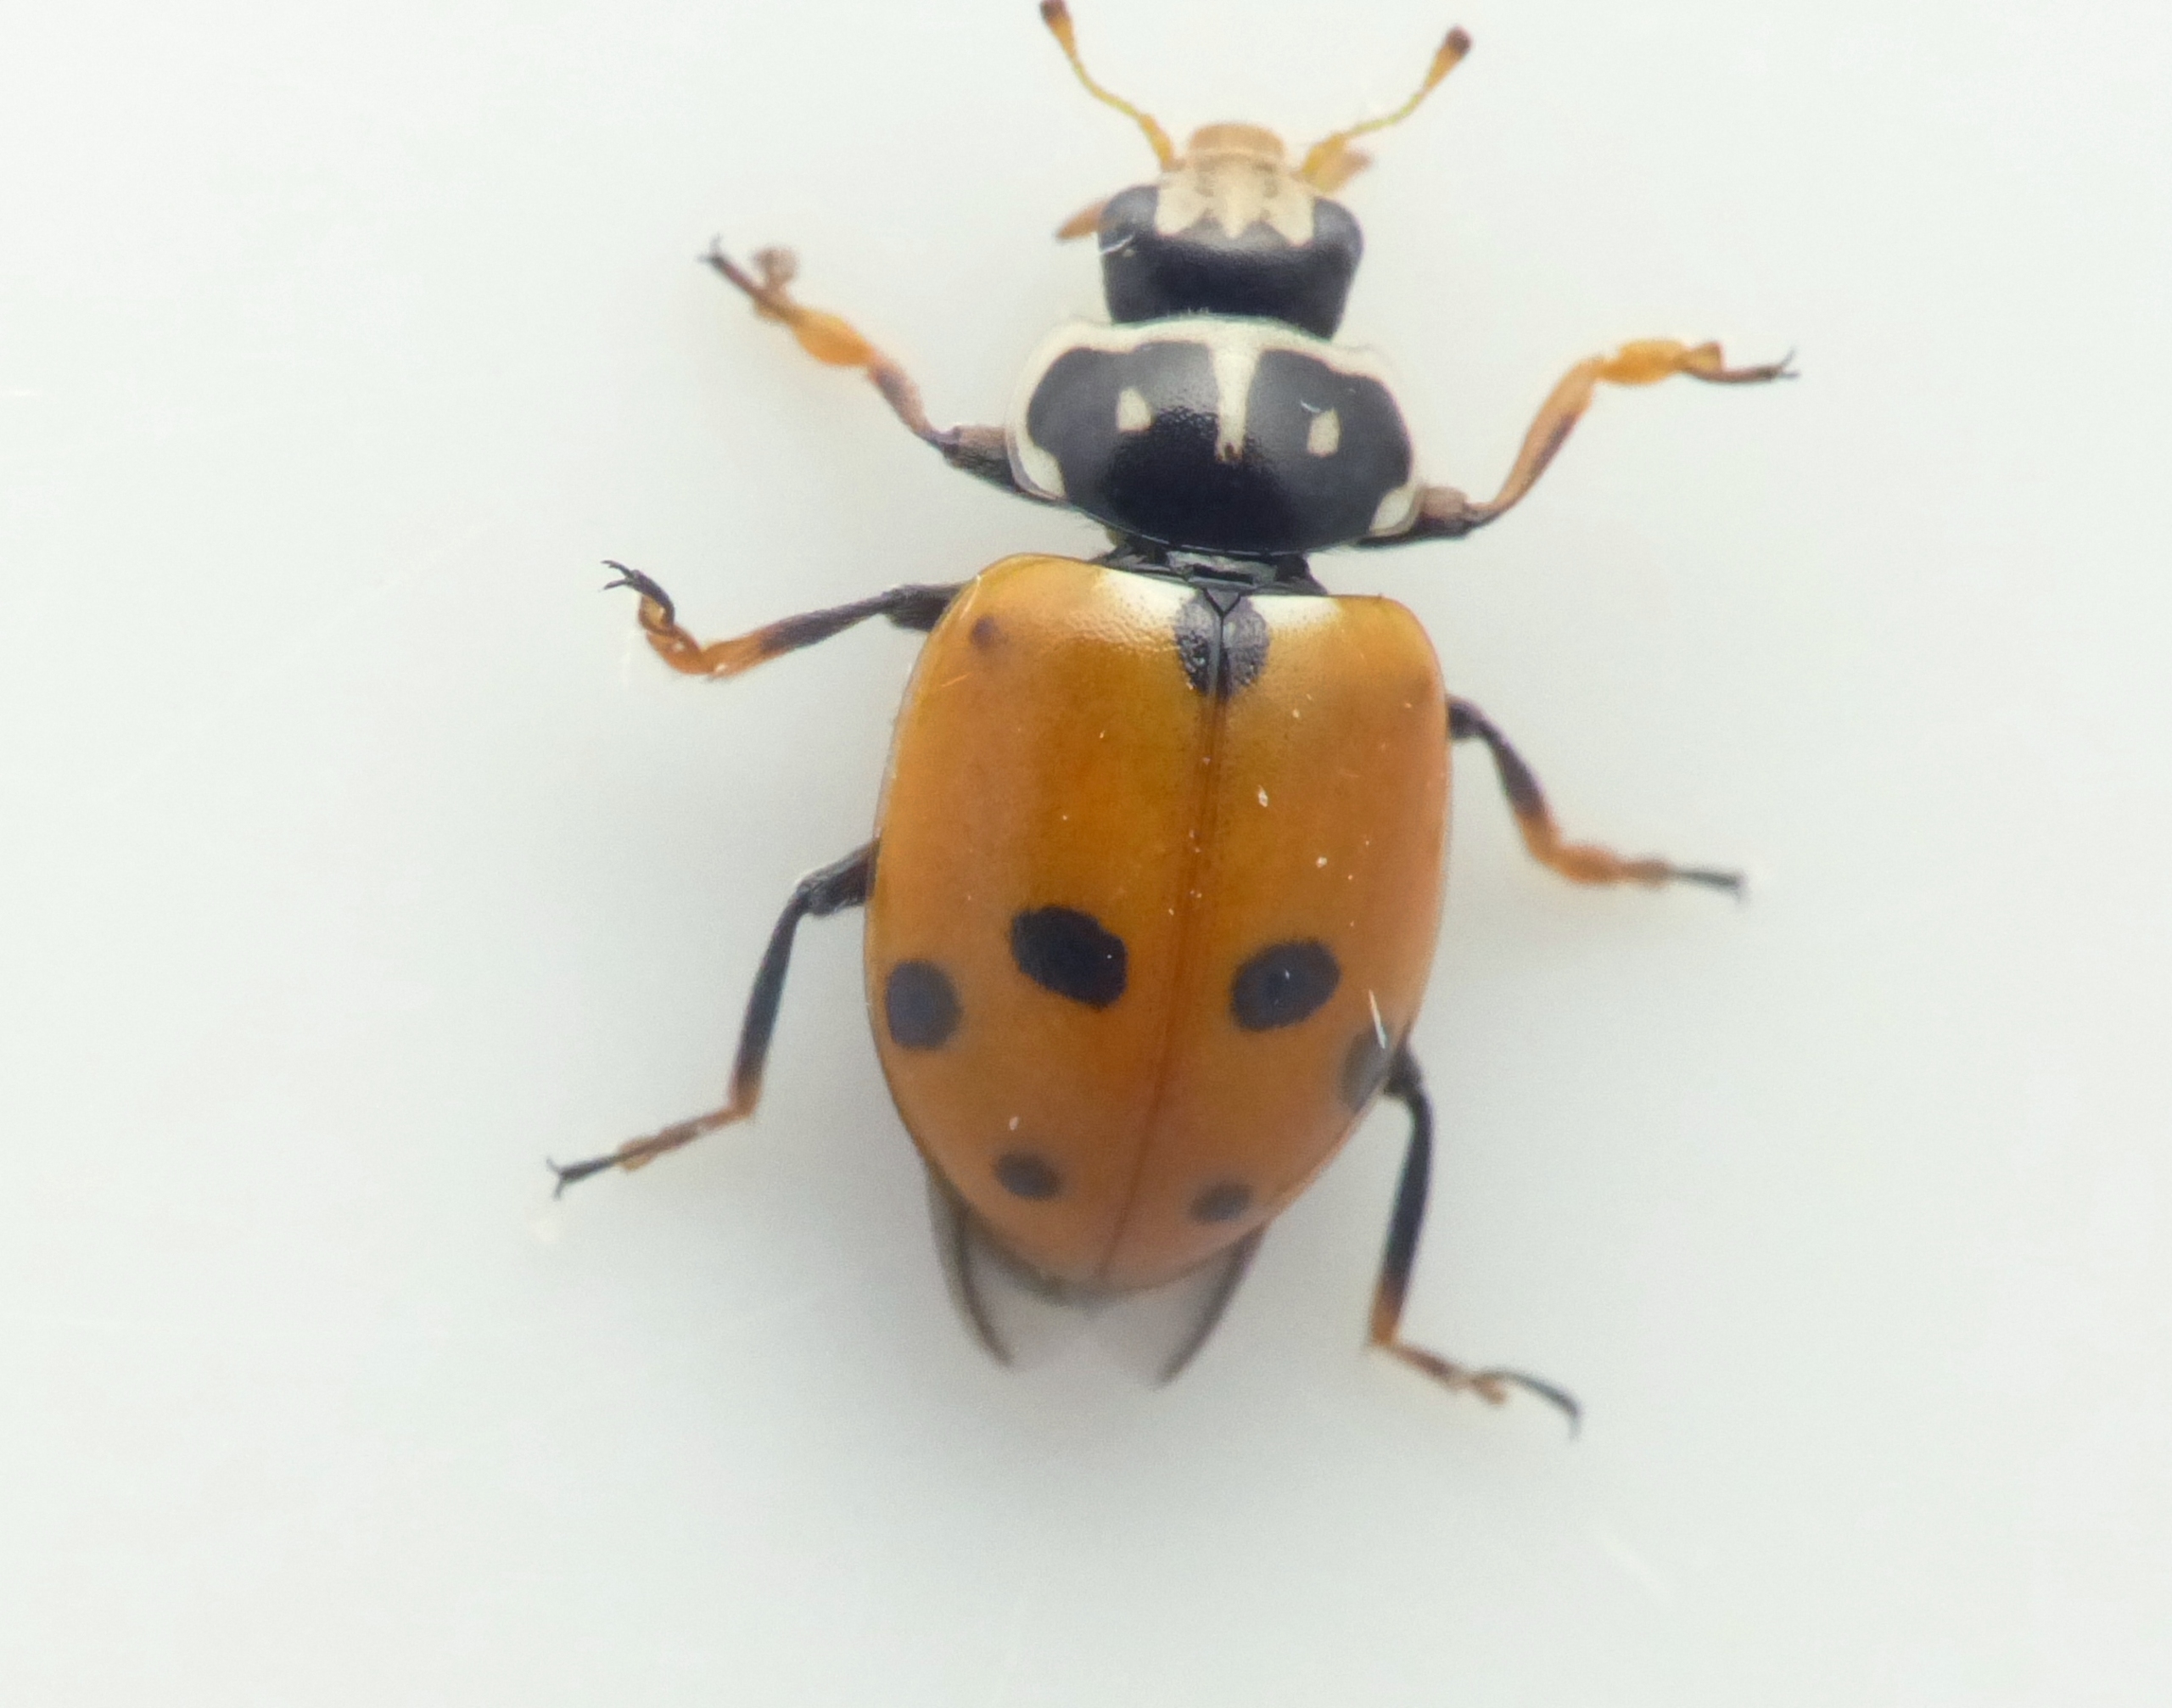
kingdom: Animalia
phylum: Arthropoda
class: Insecta
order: Coleoptera
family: Coccinellidae
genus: Hippodamia
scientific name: Hippodamia variegata
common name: Adonis' mariehøne
